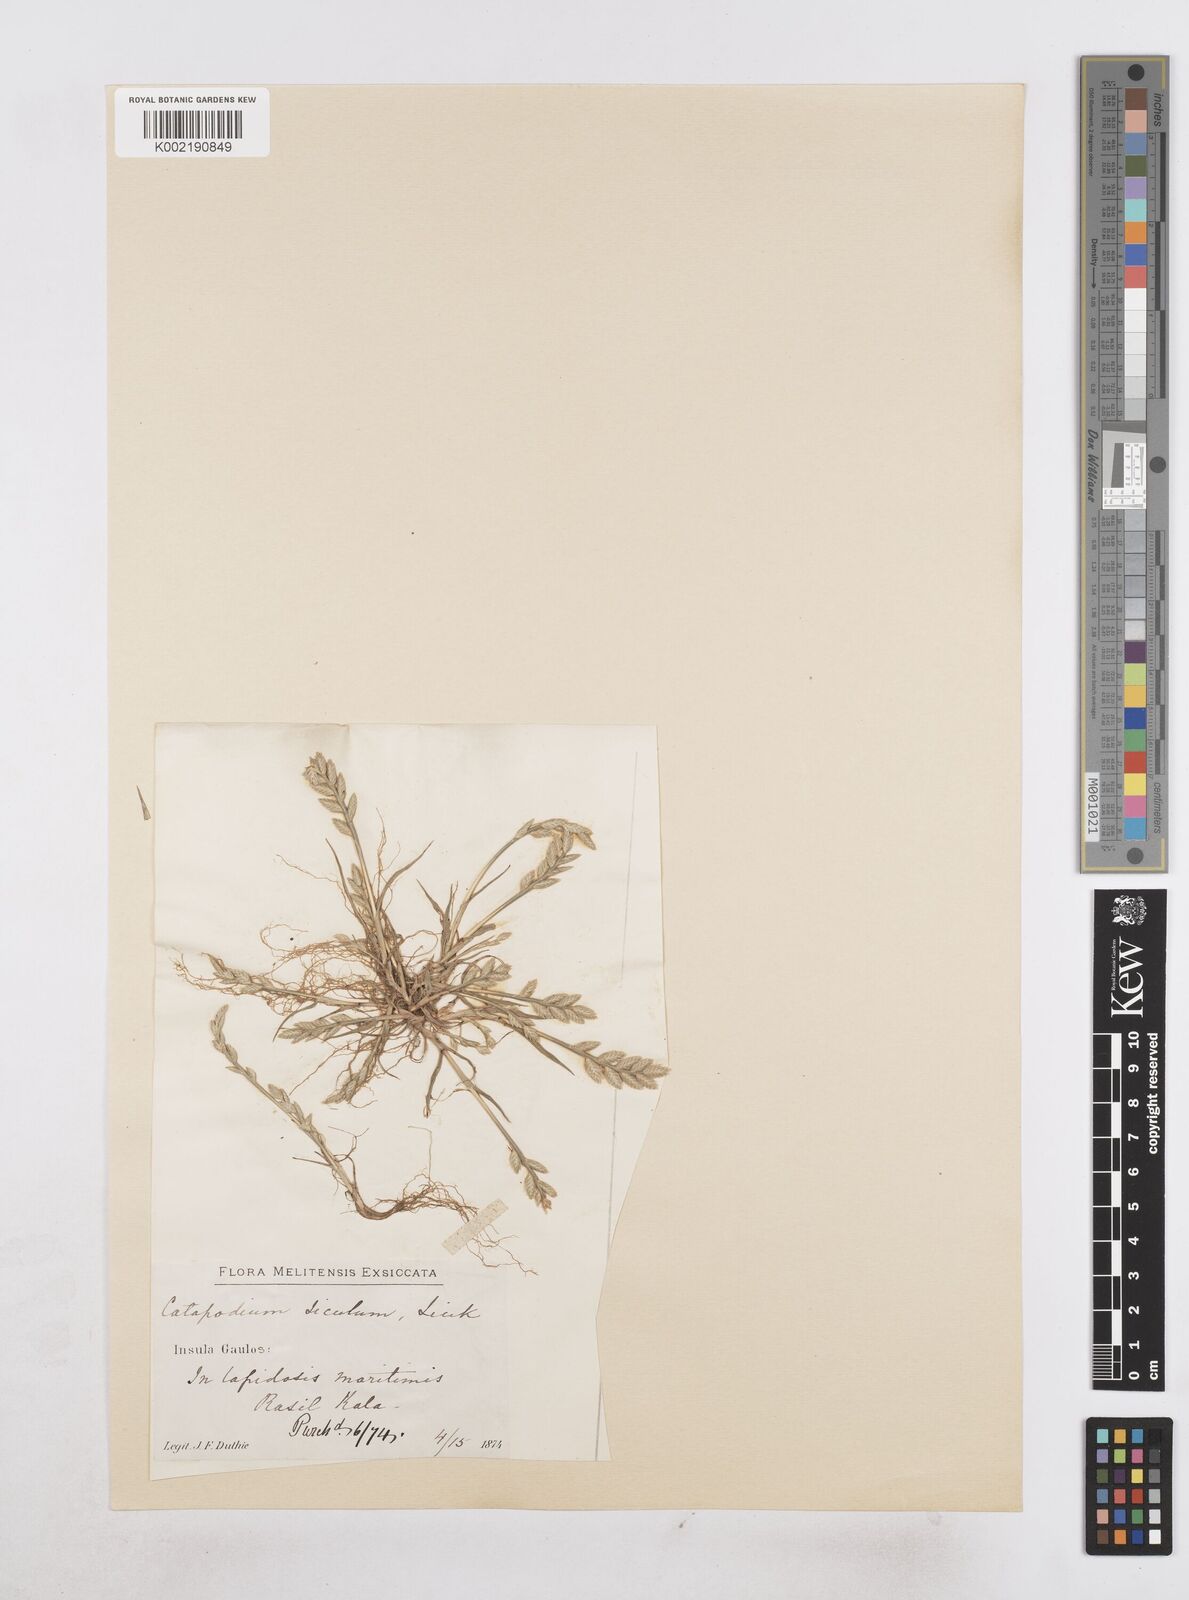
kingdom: Plantae
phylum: Tracheophyta
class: Liliopsida
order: Poales
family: Poaceae
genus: Desmazeria
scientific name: Desmazeria sicula
